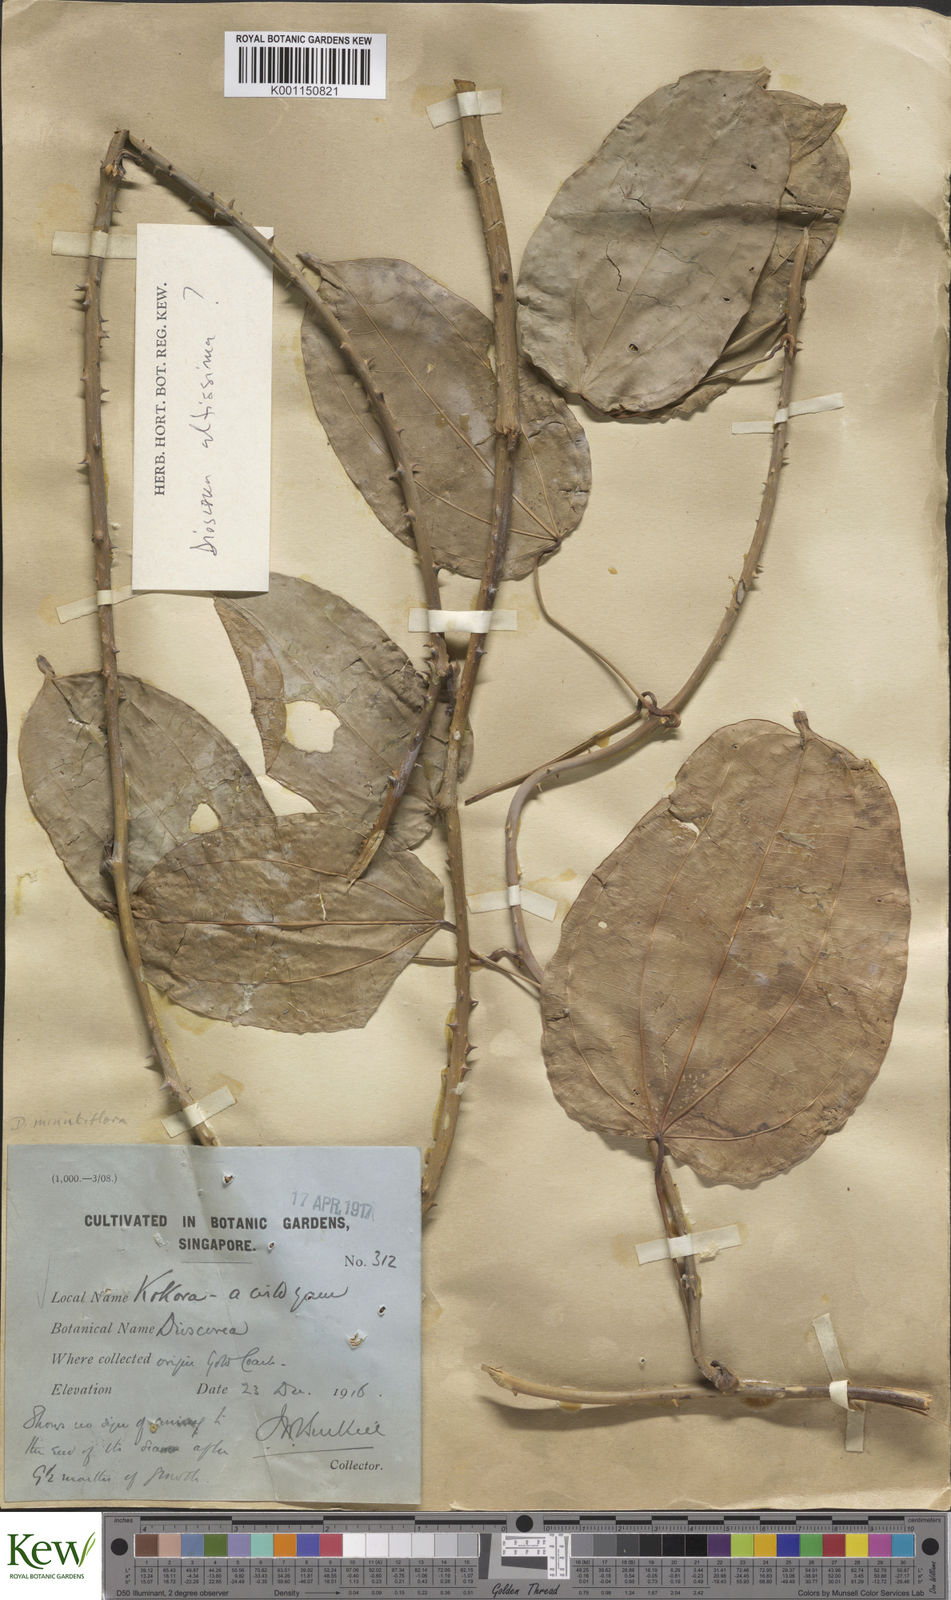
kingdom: Plantae
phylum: Tracheophyta
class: Liliopsida
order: Dioscoreales
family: Dioscoreaceae
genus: Dioscorea
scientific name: Dioscorea minutiflora
